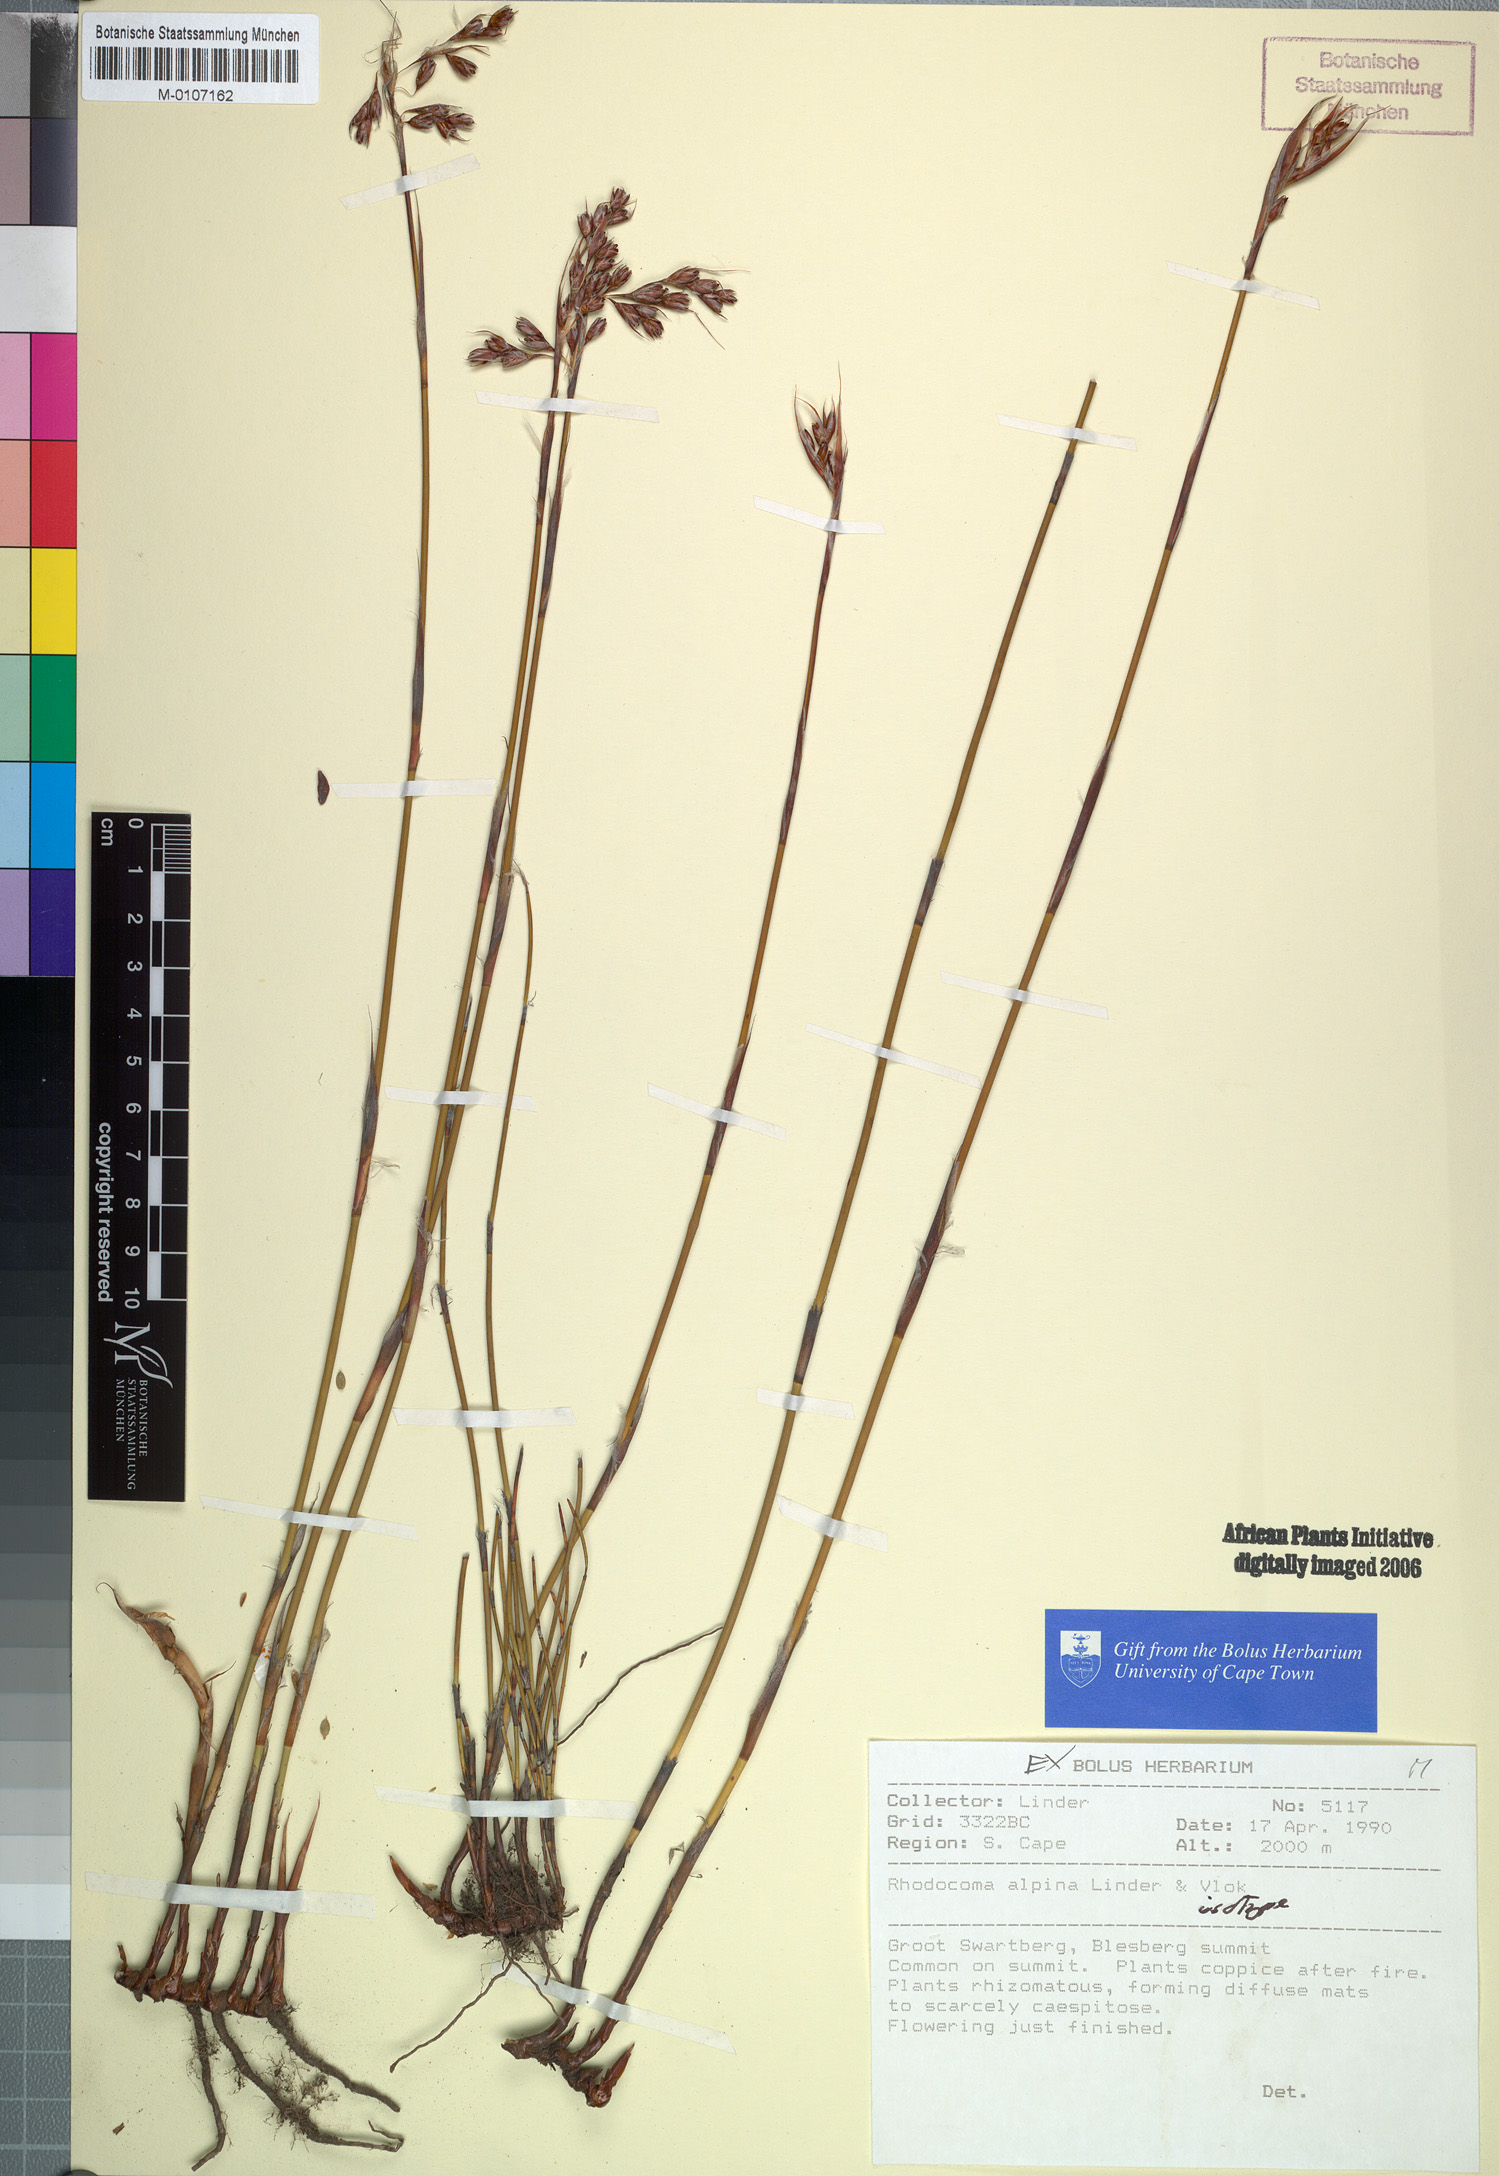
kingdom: Plantae
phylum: Tracheophyta
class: Liliopsida
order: Poales
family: Restionaceae
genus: Rhodocoma
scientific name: Rhodocoma alpina
